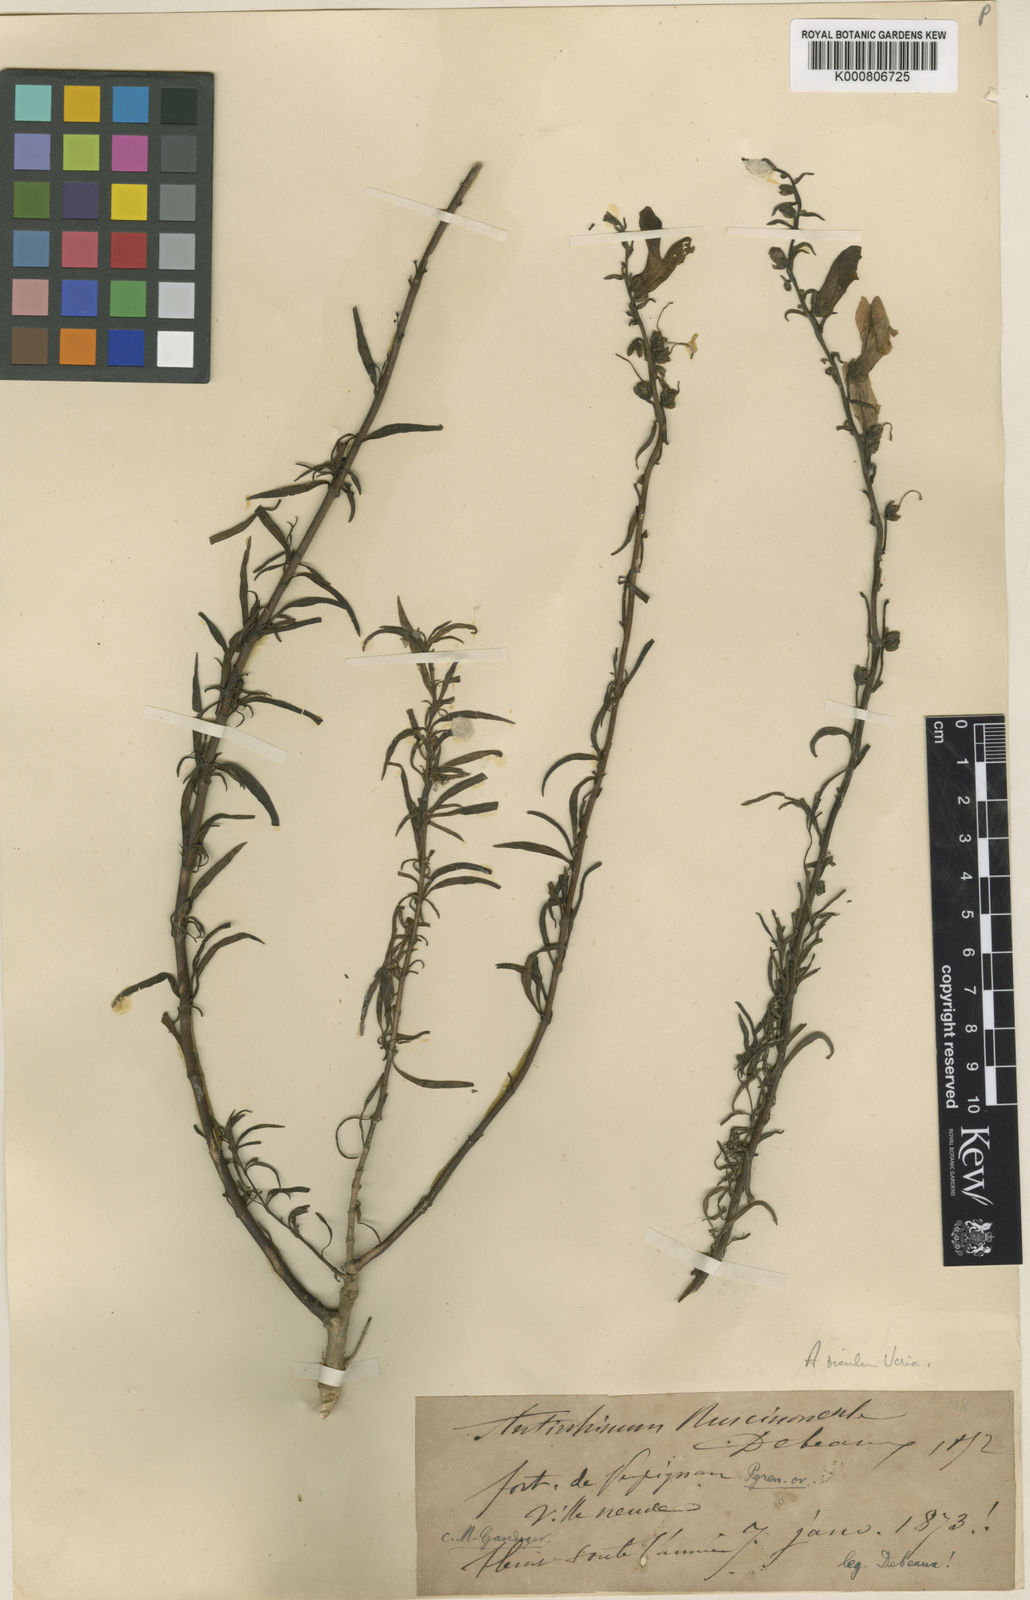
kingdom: Plantae
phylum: Tracheophyta
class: Magnoliopsida
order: Lamiales
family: Plantaginaceae
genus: Antirrhinum
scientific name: Antirrhinum siculum
